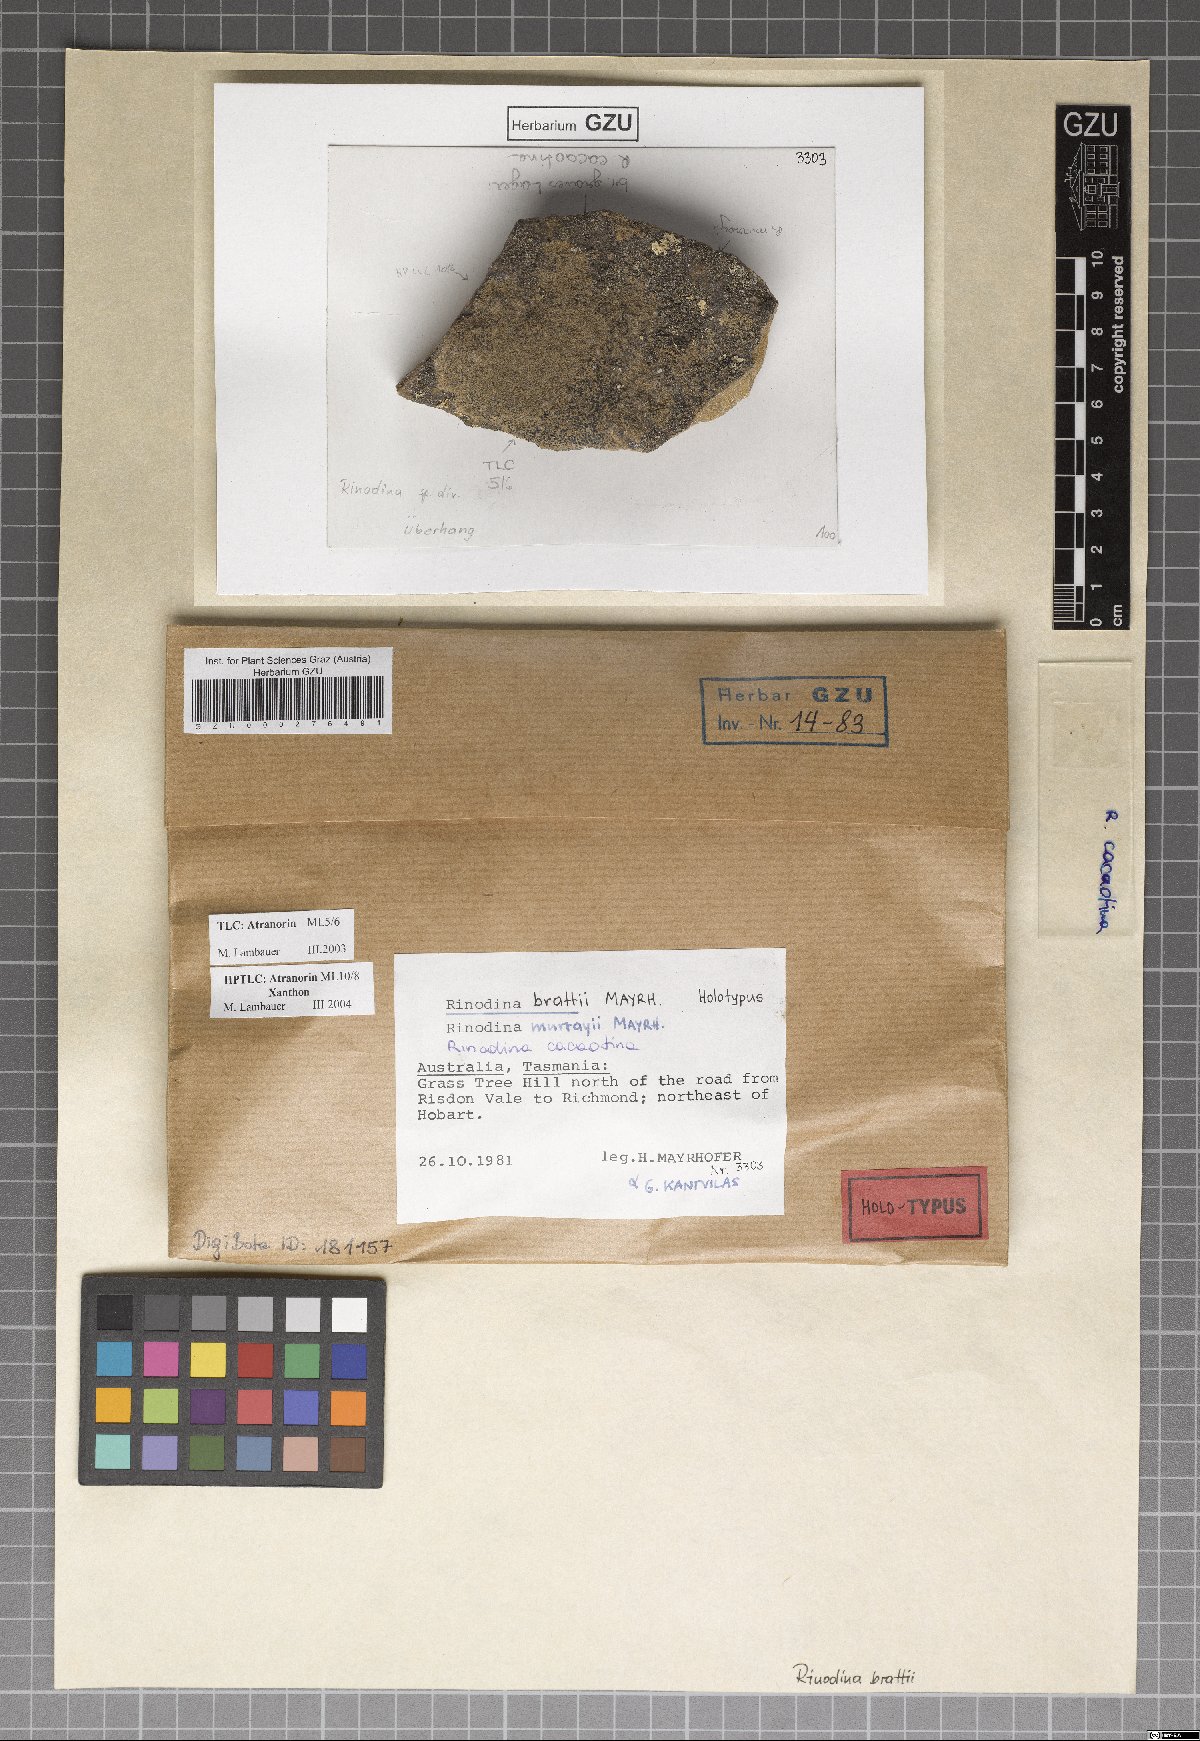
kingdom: Fungi
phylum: Ascomycota
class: Lecanoromycetes
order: Caliciales
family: Physciaceae
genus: Rinodina
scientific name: Rinodina brattii
